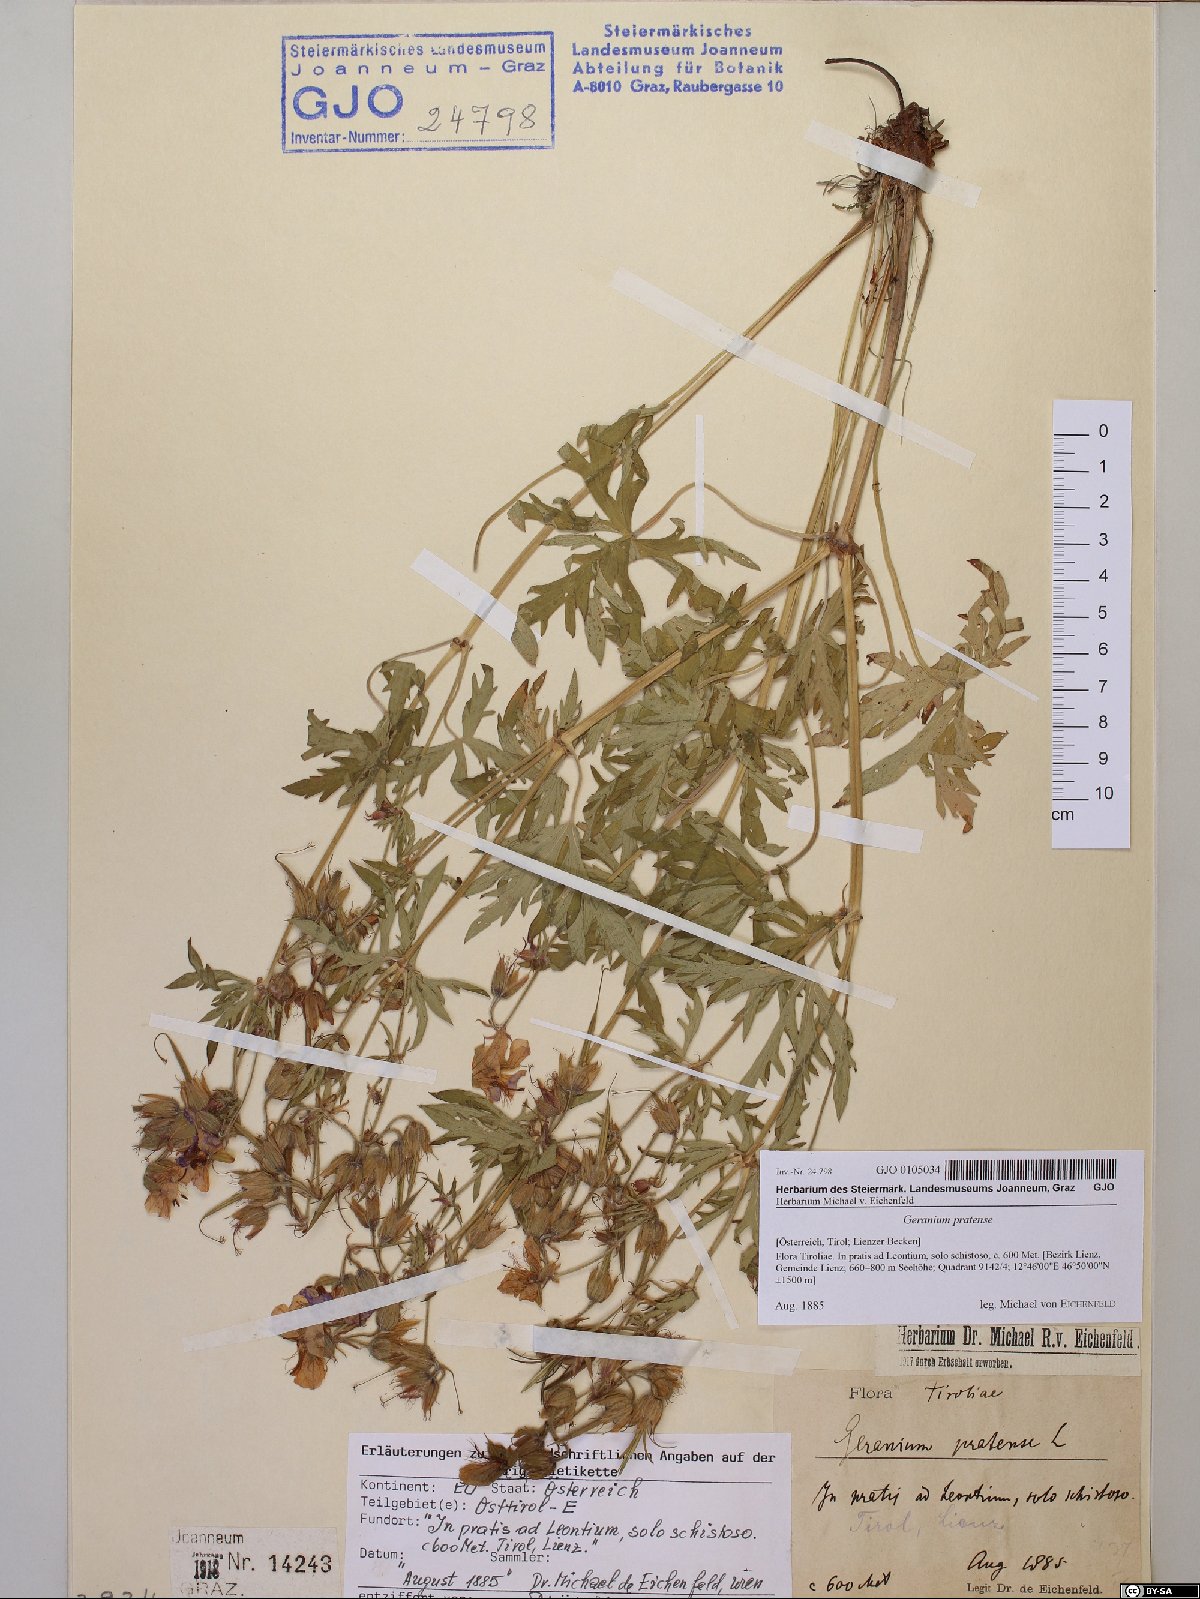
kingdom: Plantae
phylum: Tracheophyta
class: Magnoliopsida
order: Geraniales
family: Geraniaceae
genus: Geranium
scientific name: Geranium pratense
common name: Meadow crane's-bill
